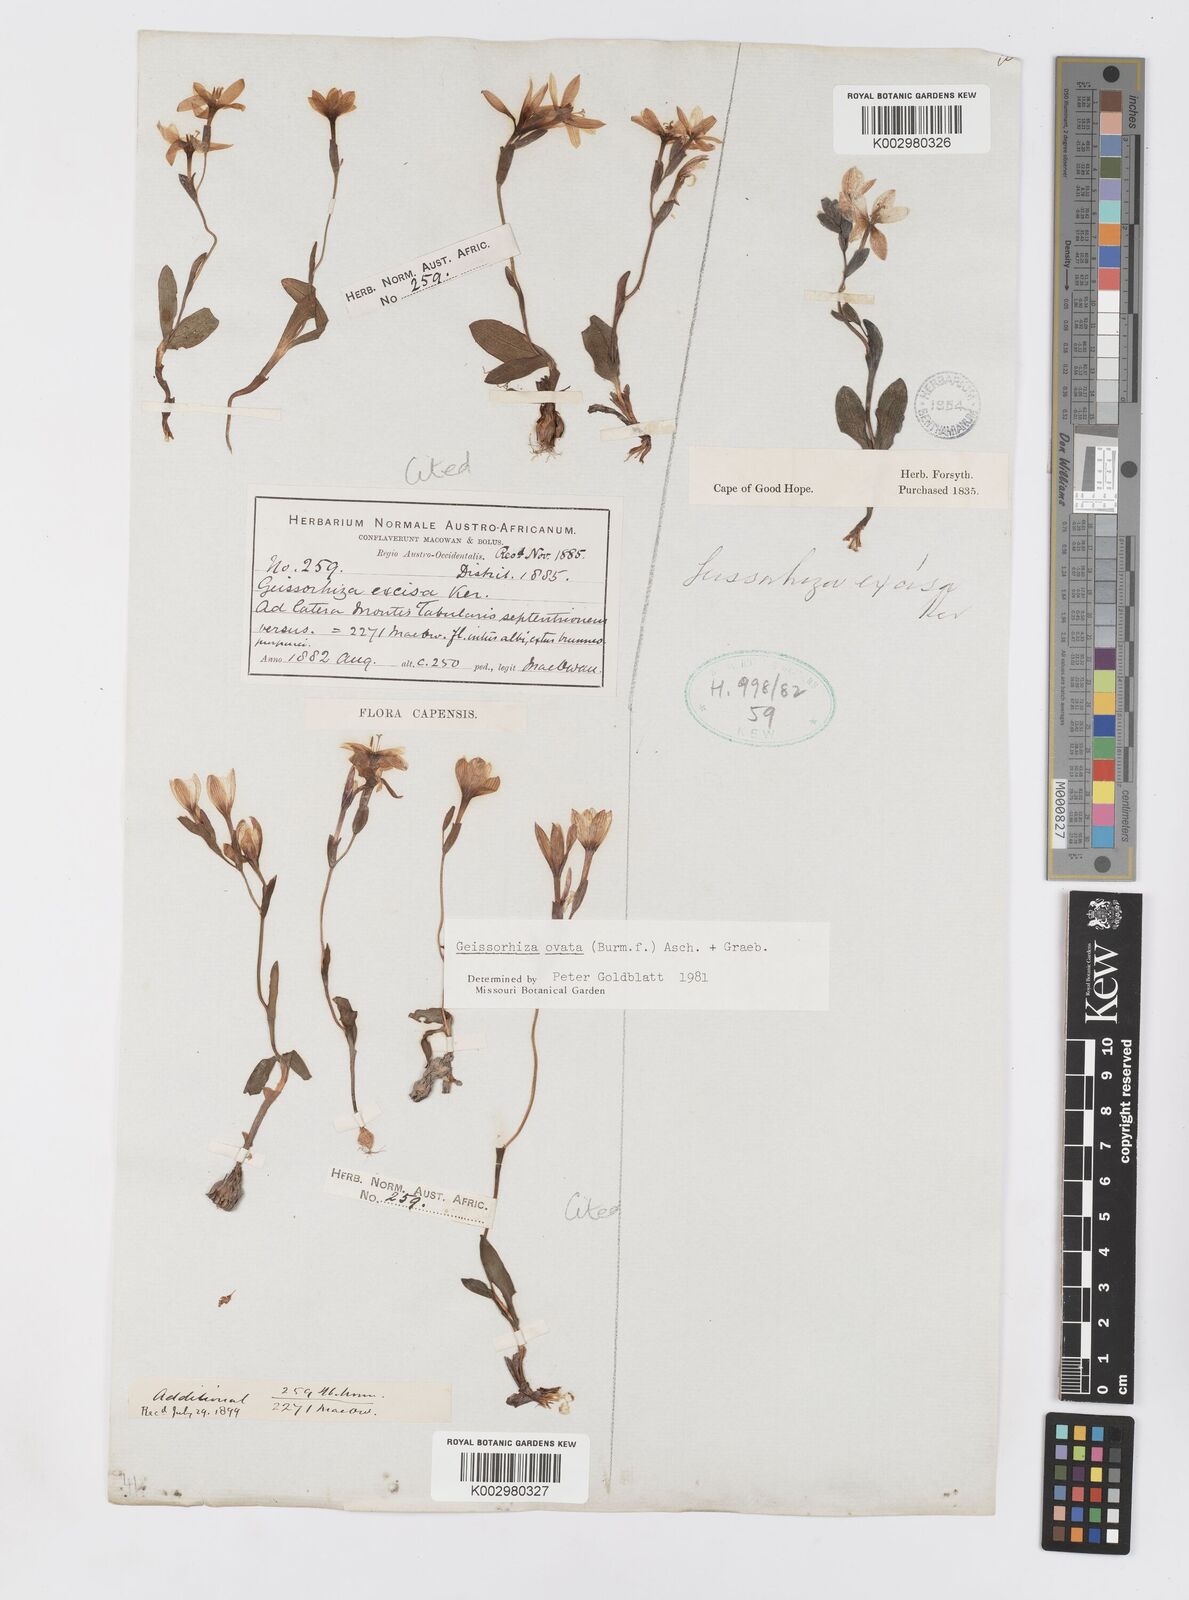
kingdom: Plantae
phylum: Tracheophyta
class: Liliopsida
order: Asparagales
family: Iridaceae
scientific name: Iridaceae
